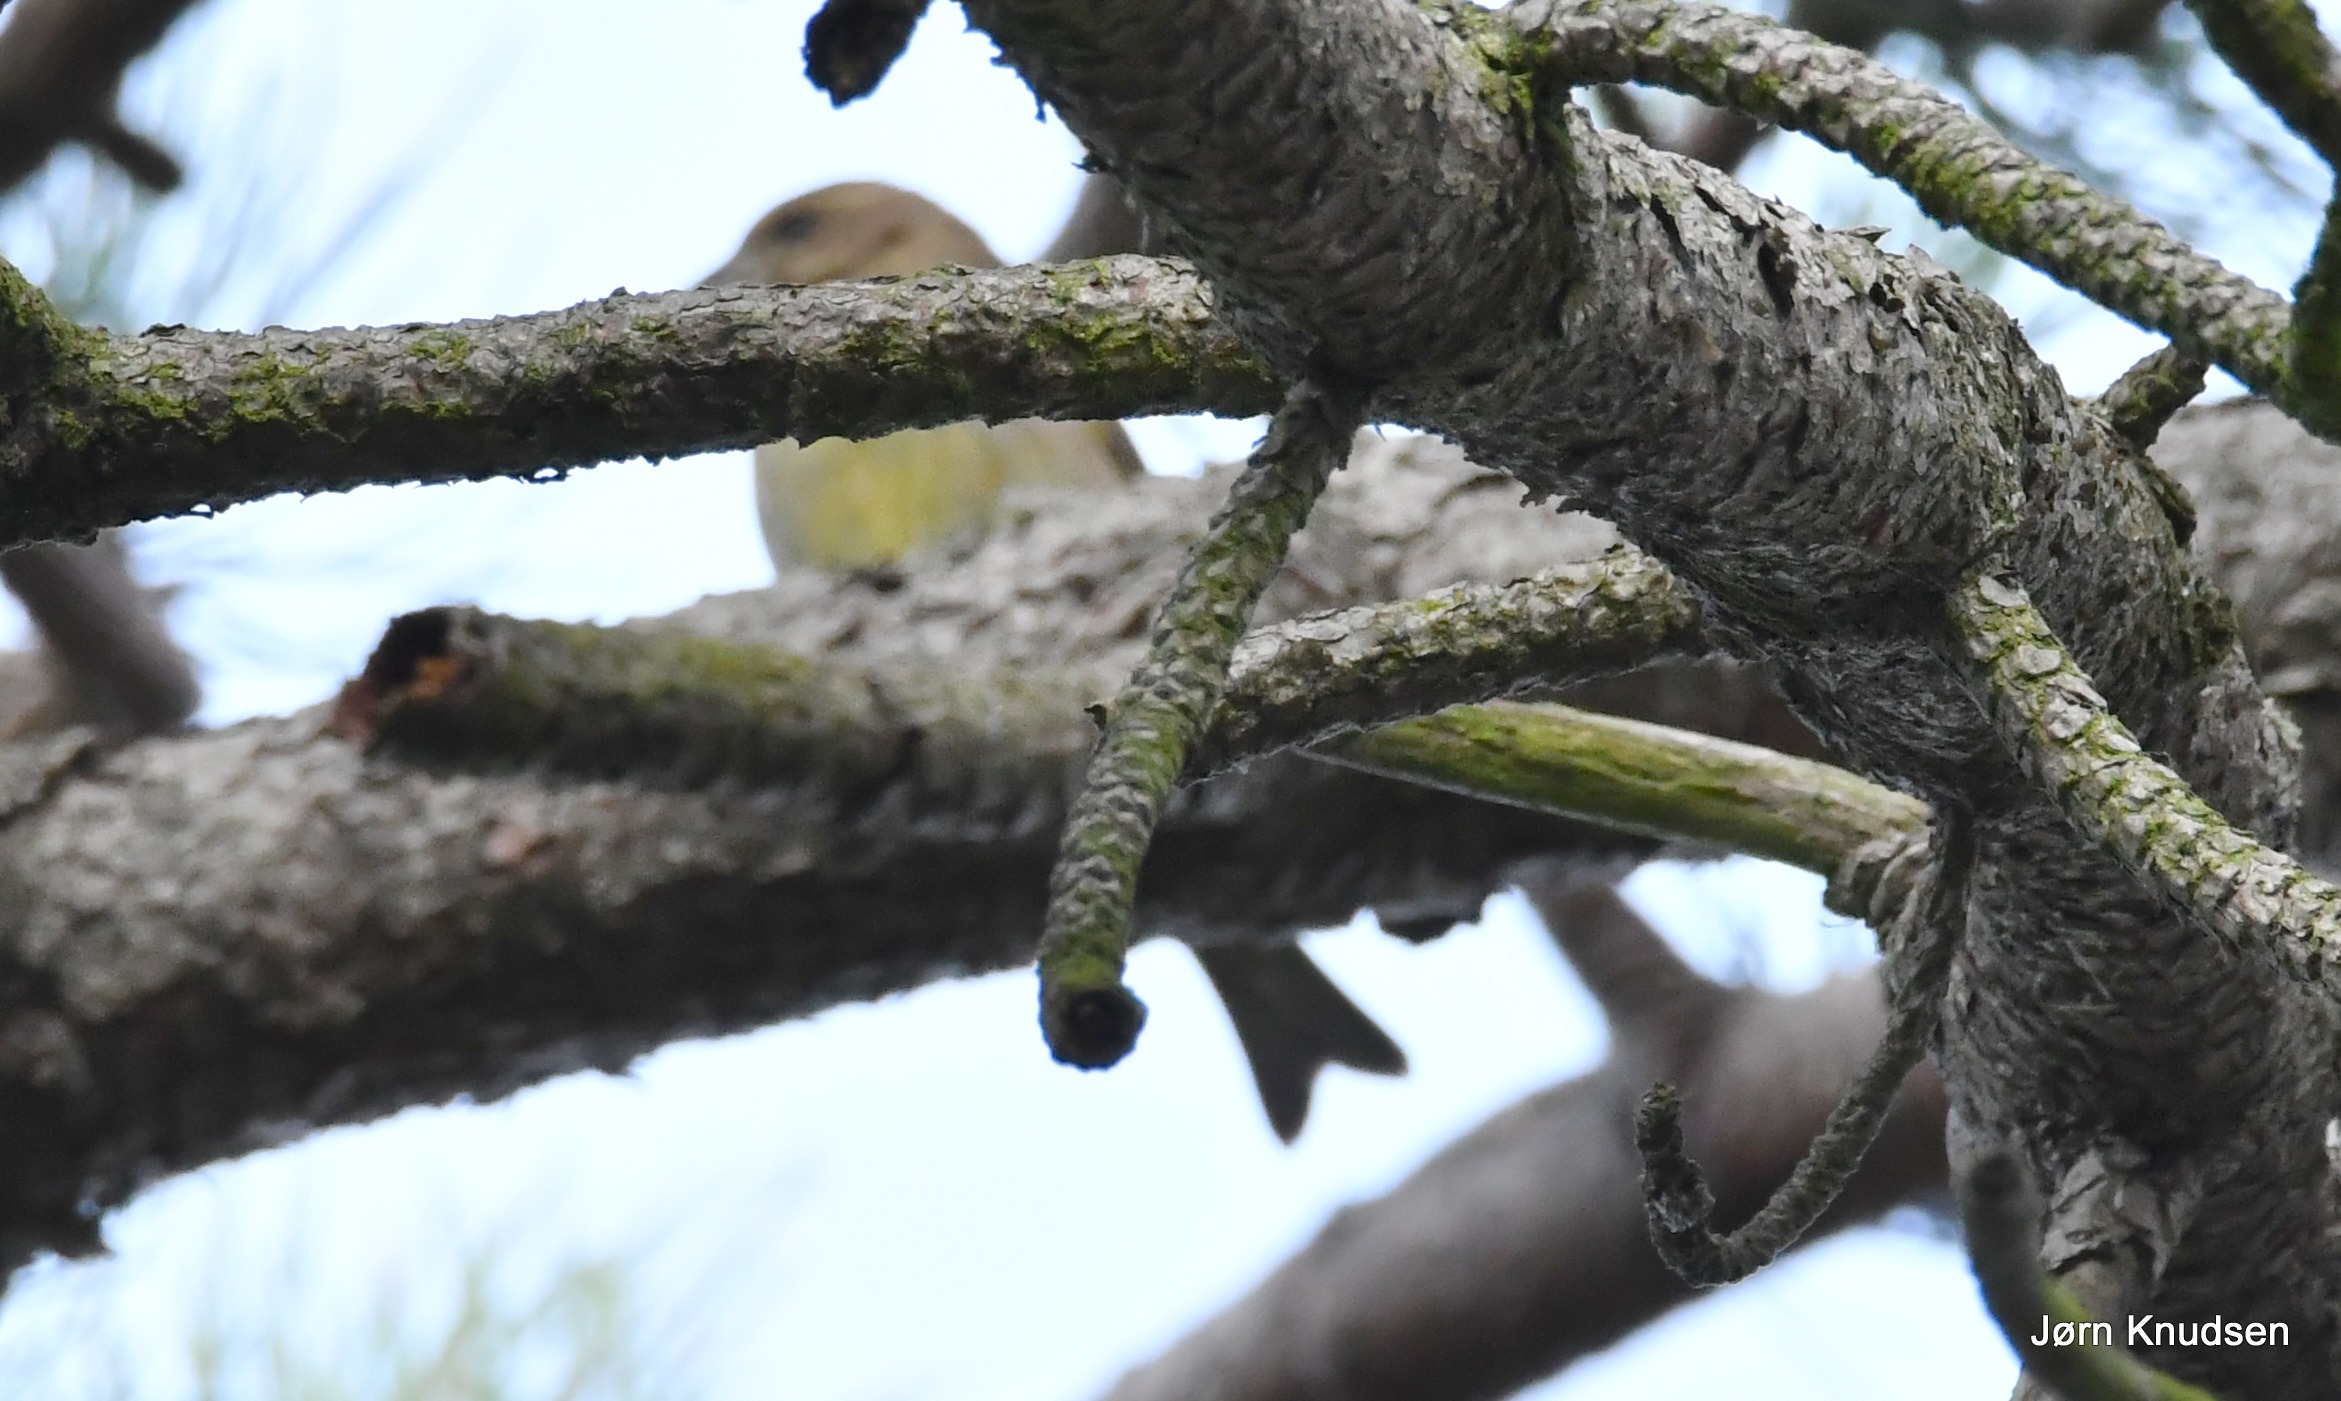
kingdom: Plantae
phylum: Tracheophyta
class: Liliopsida
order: Poales
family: Poaceae
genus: Chloris
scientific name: Chloris chloris
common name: Grønirisk
